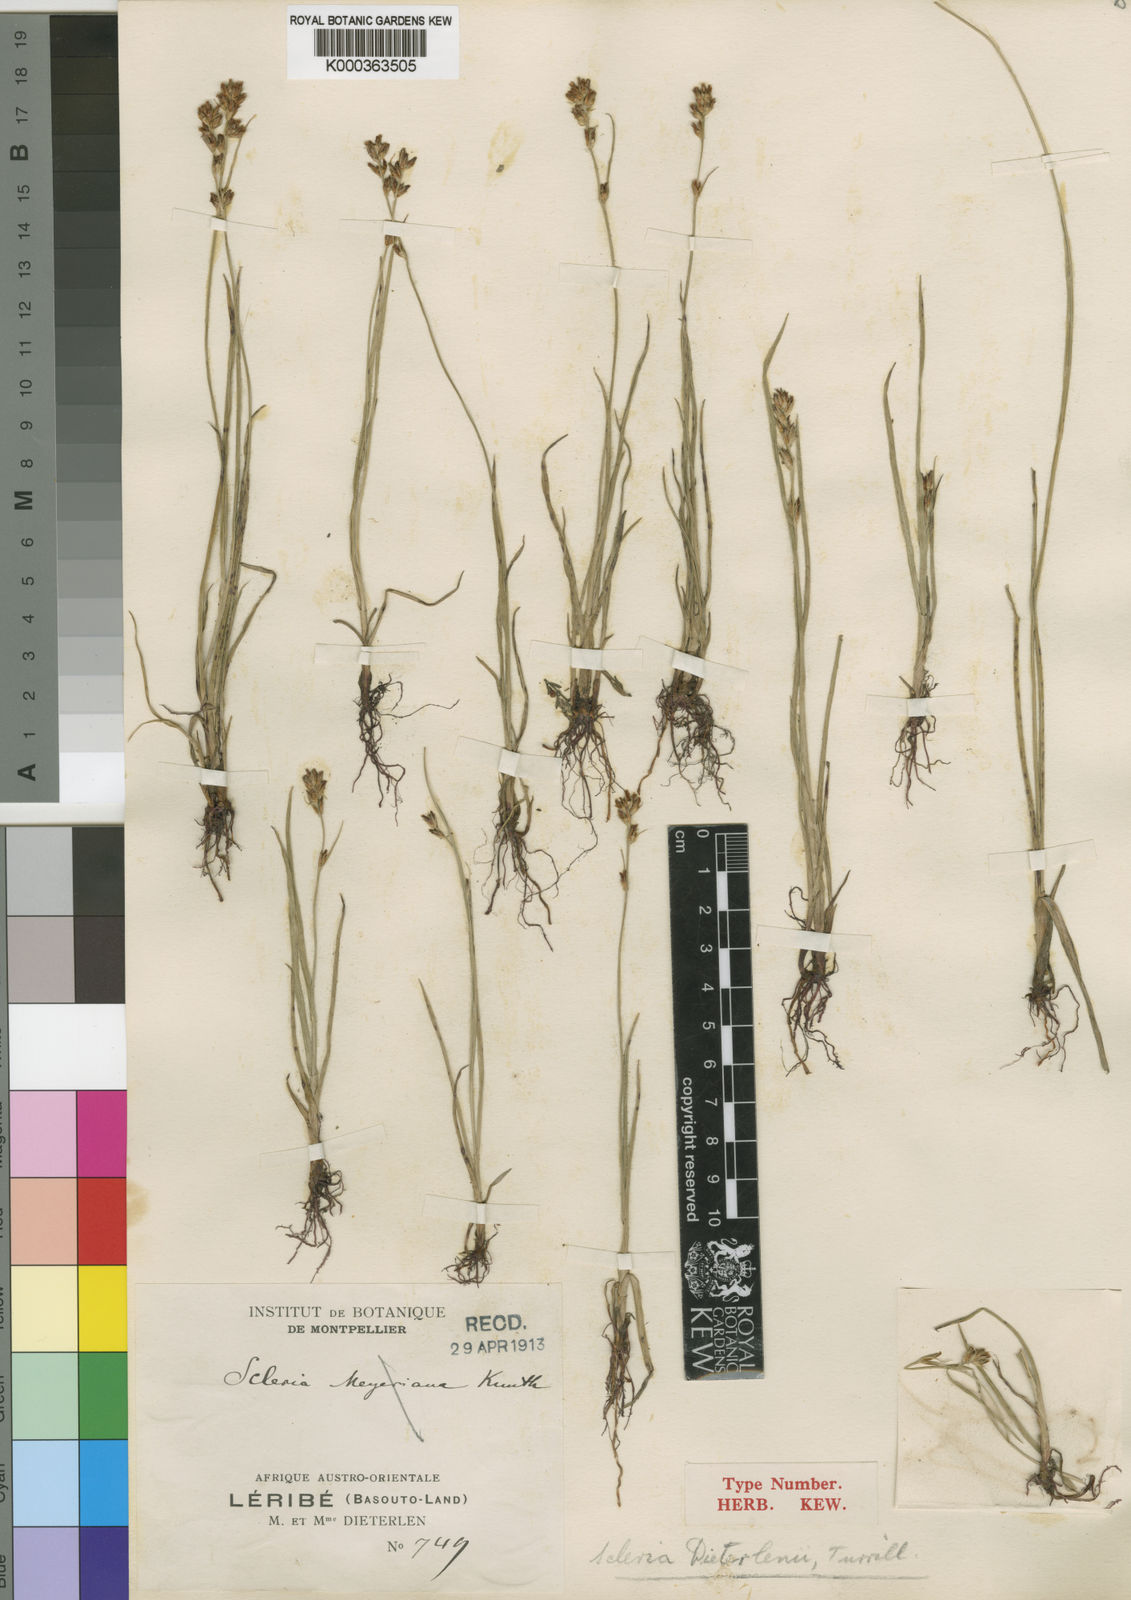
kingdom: Plantae
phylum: Tracheophyta
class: Liliopsida
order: Poales
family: Cyperaceae
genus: Scleria
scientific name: Scleria flexuosa
